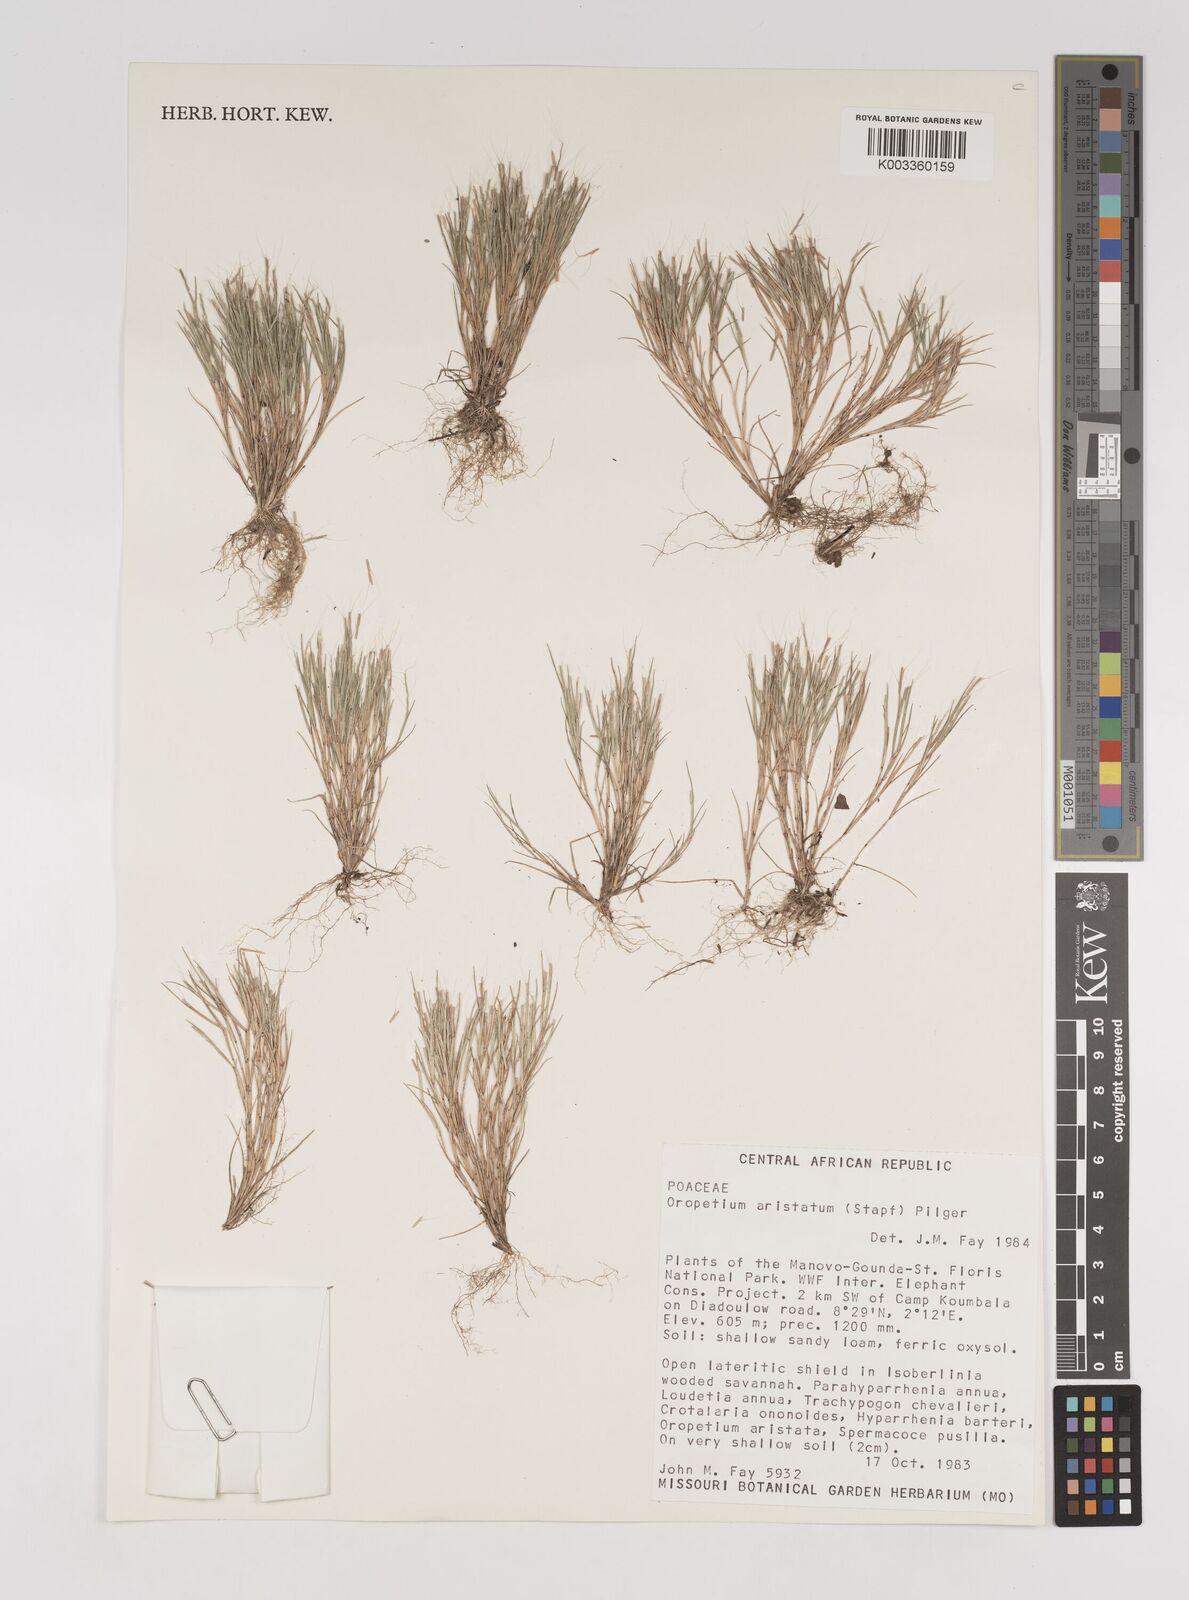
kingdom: Plantae
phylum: Tracheophyta
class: Liliopsida
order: Poales
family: Poaceae
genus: Oropetium
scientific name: Oropetium aristatum
